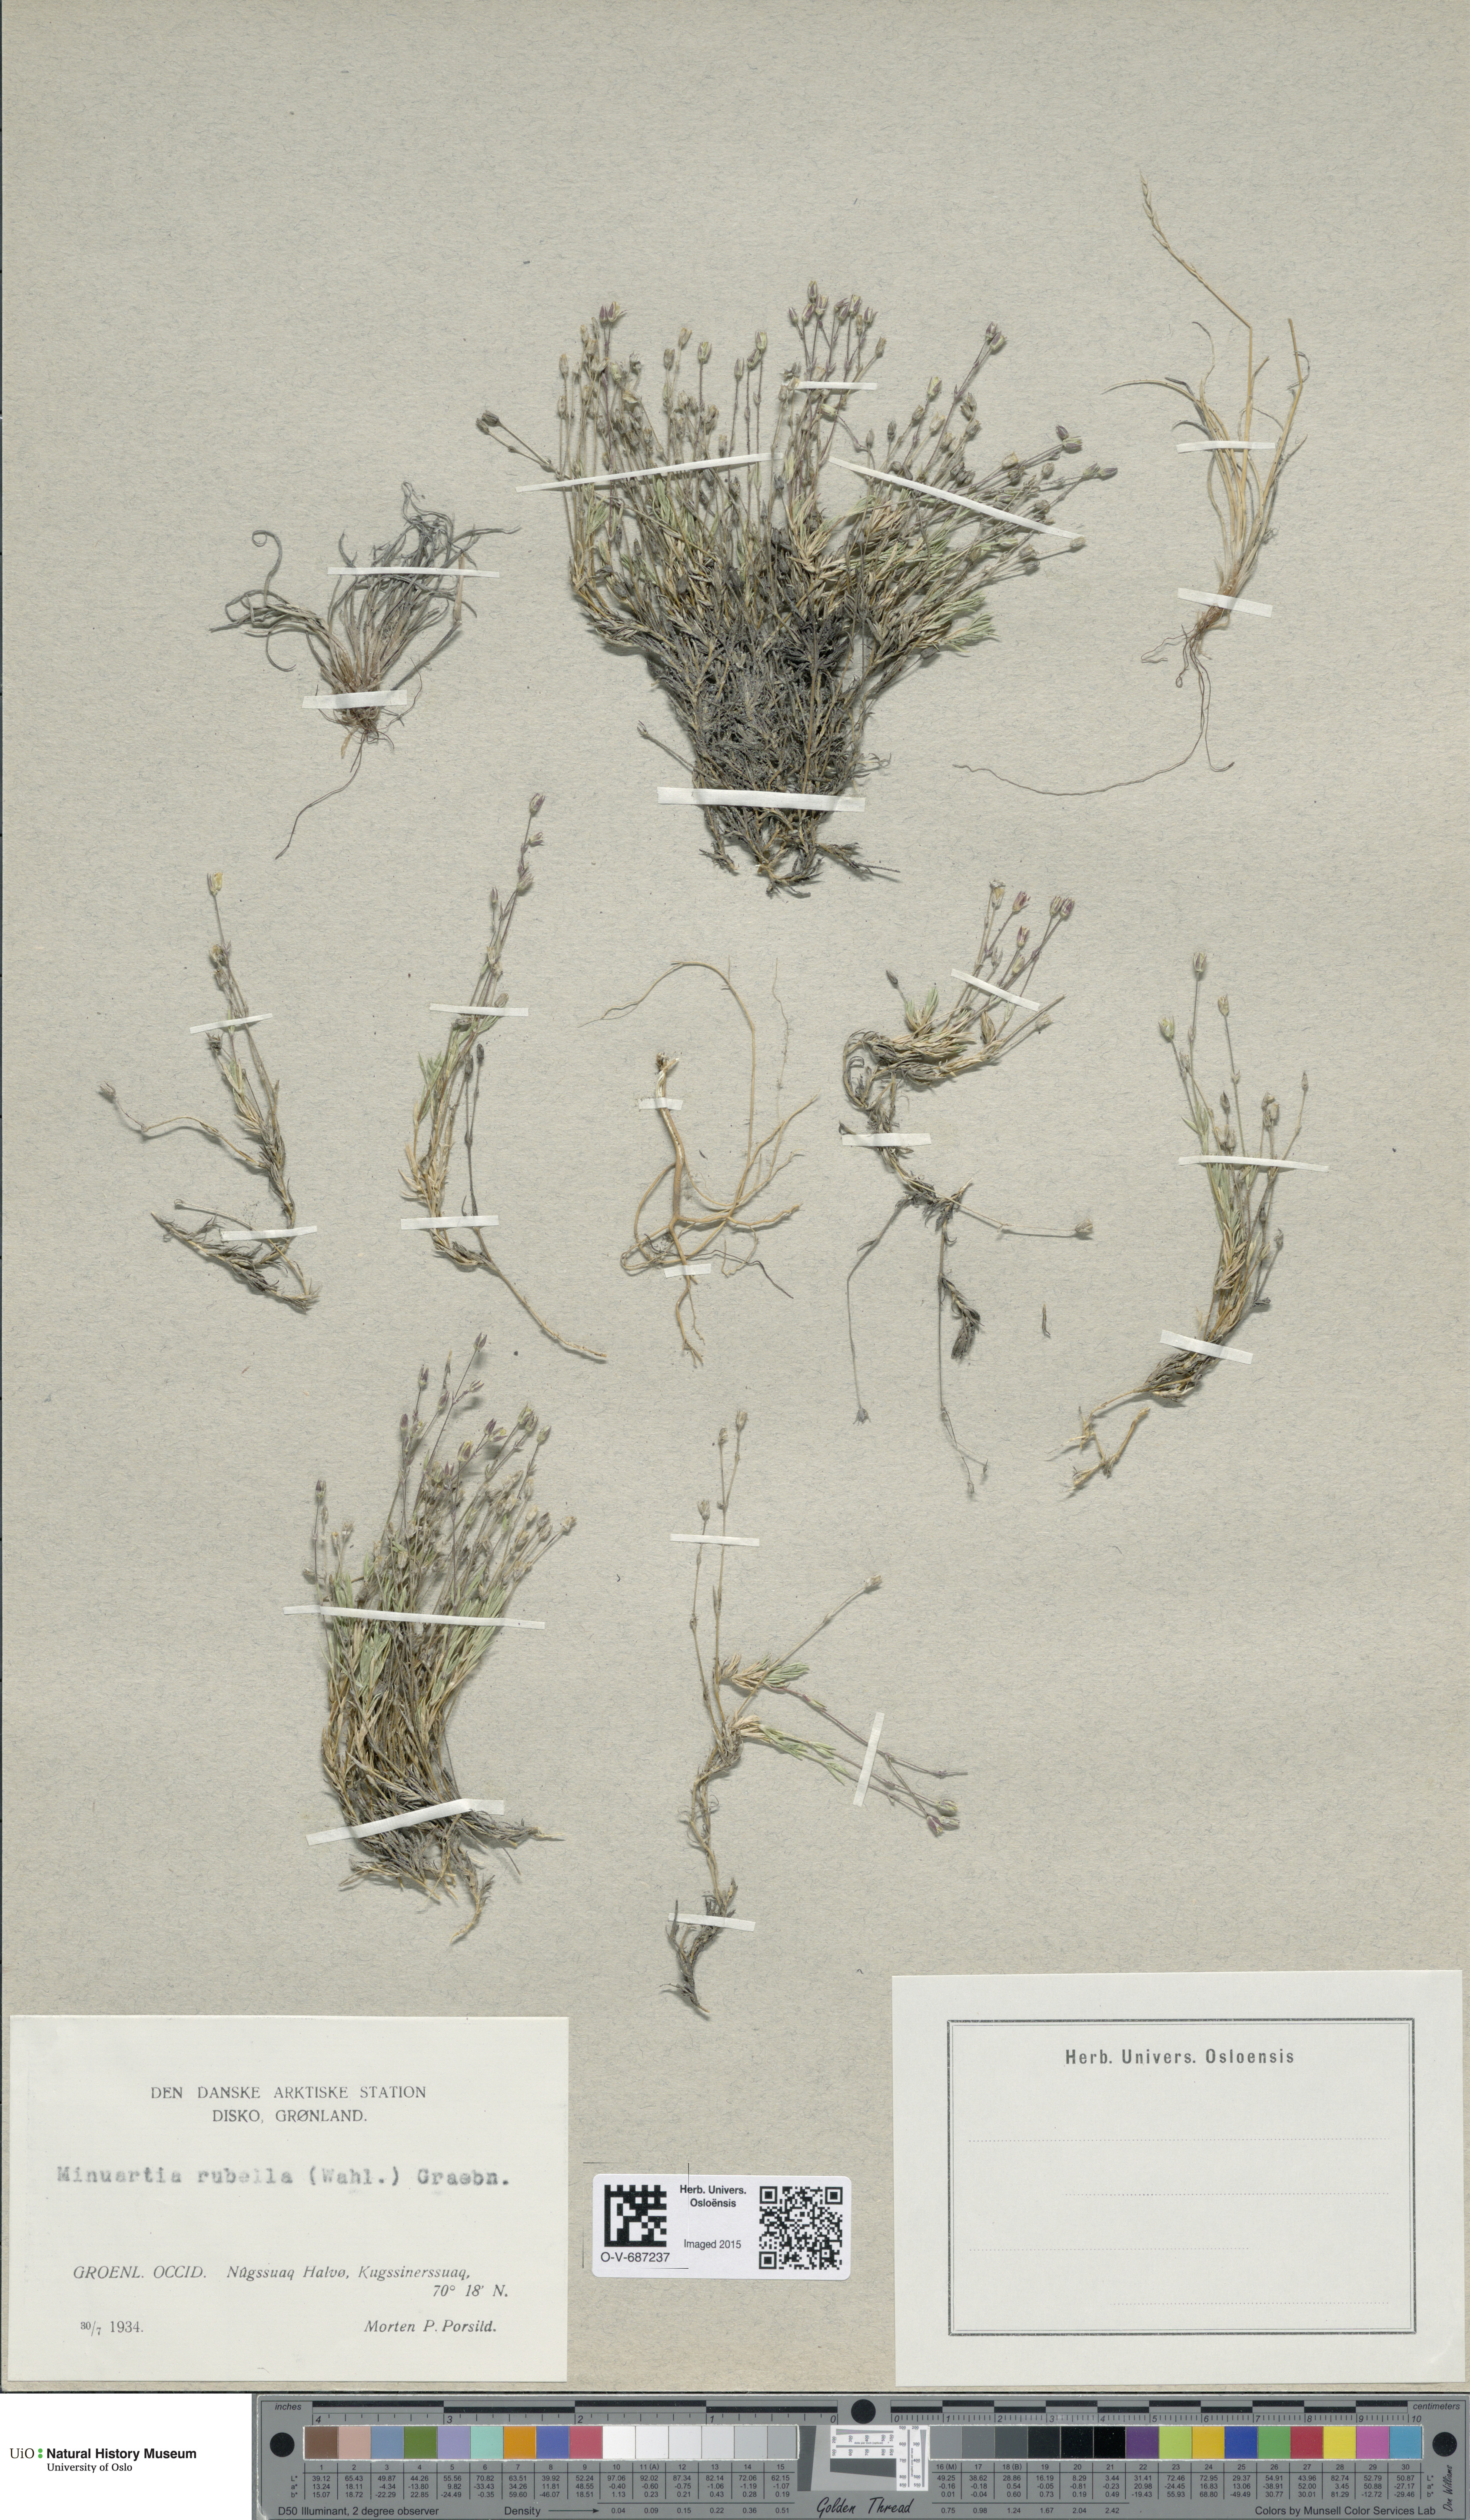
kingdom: Plantae
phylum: Tracheophyta
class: Magnoliopsida
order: Caryophyllales
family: Caryophyllaceae
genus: Sabulina
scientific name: Sabulina rubella
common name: Beautiful sandwort
